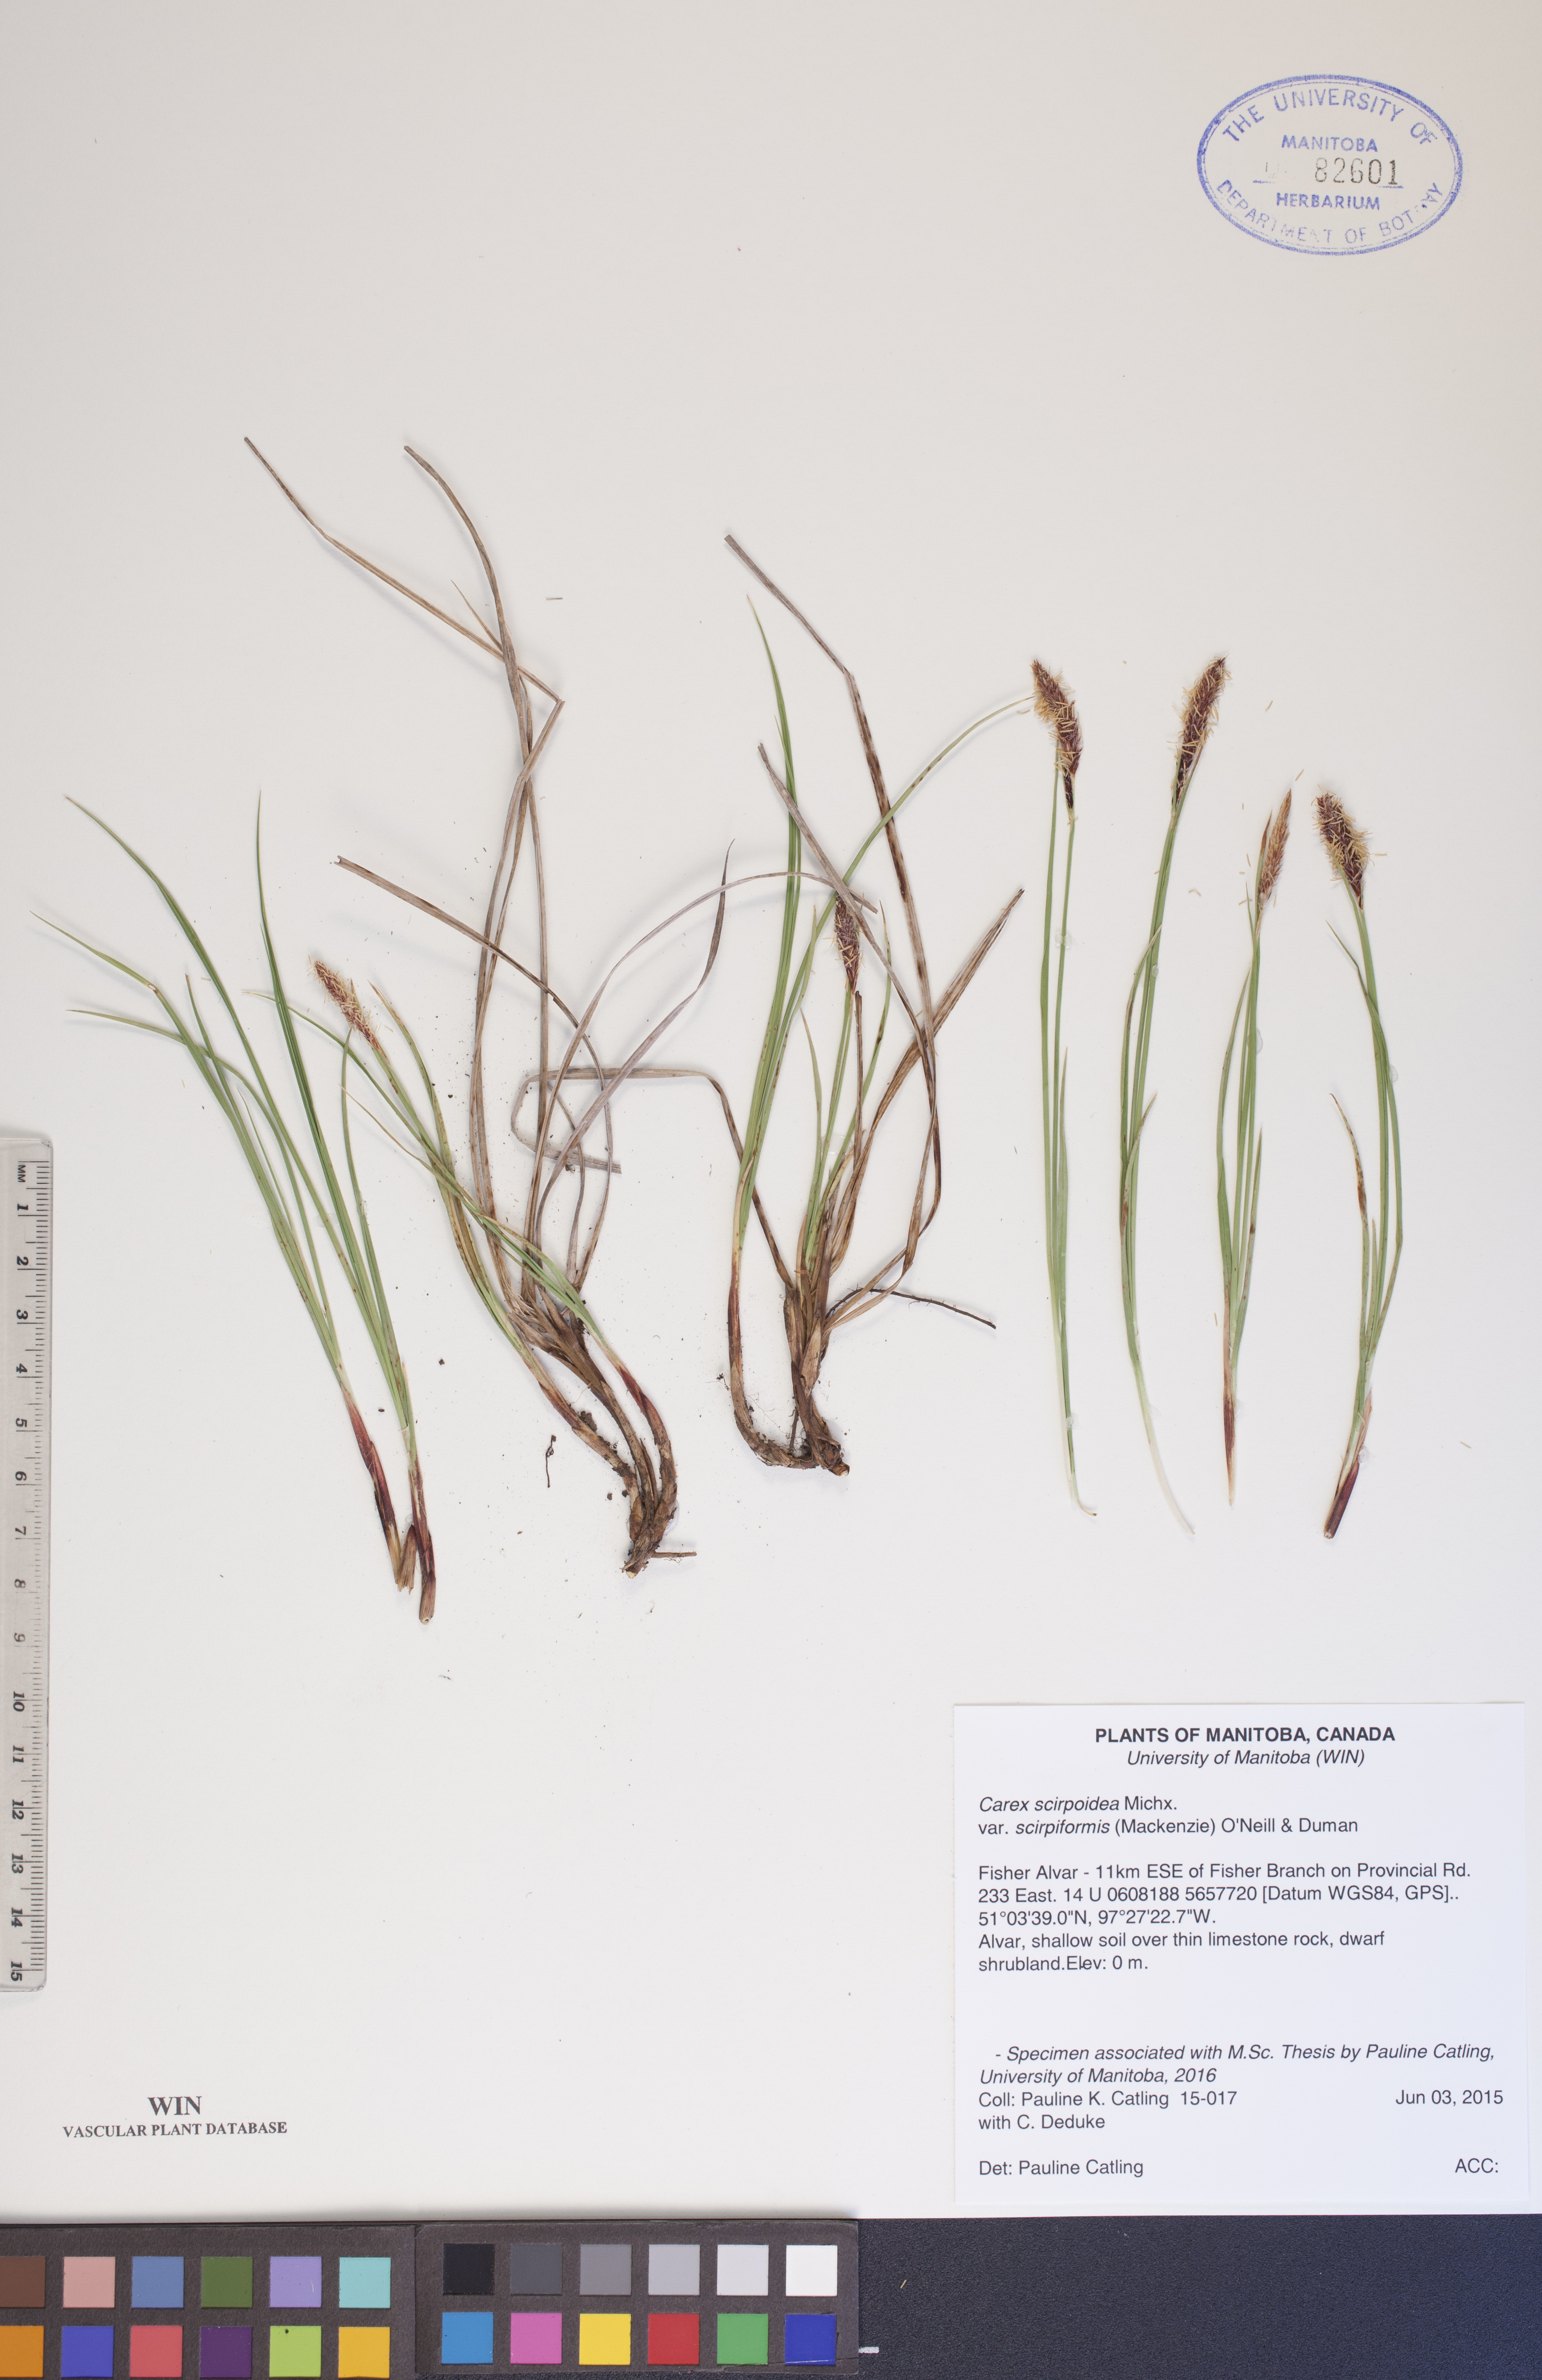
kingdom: Plantae
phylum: Tracheophyta
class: Liliopsida
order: Poales
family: Cyperaceae
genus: Carex
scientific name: Carex scirpoidea
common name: Canada single-spike sedge
